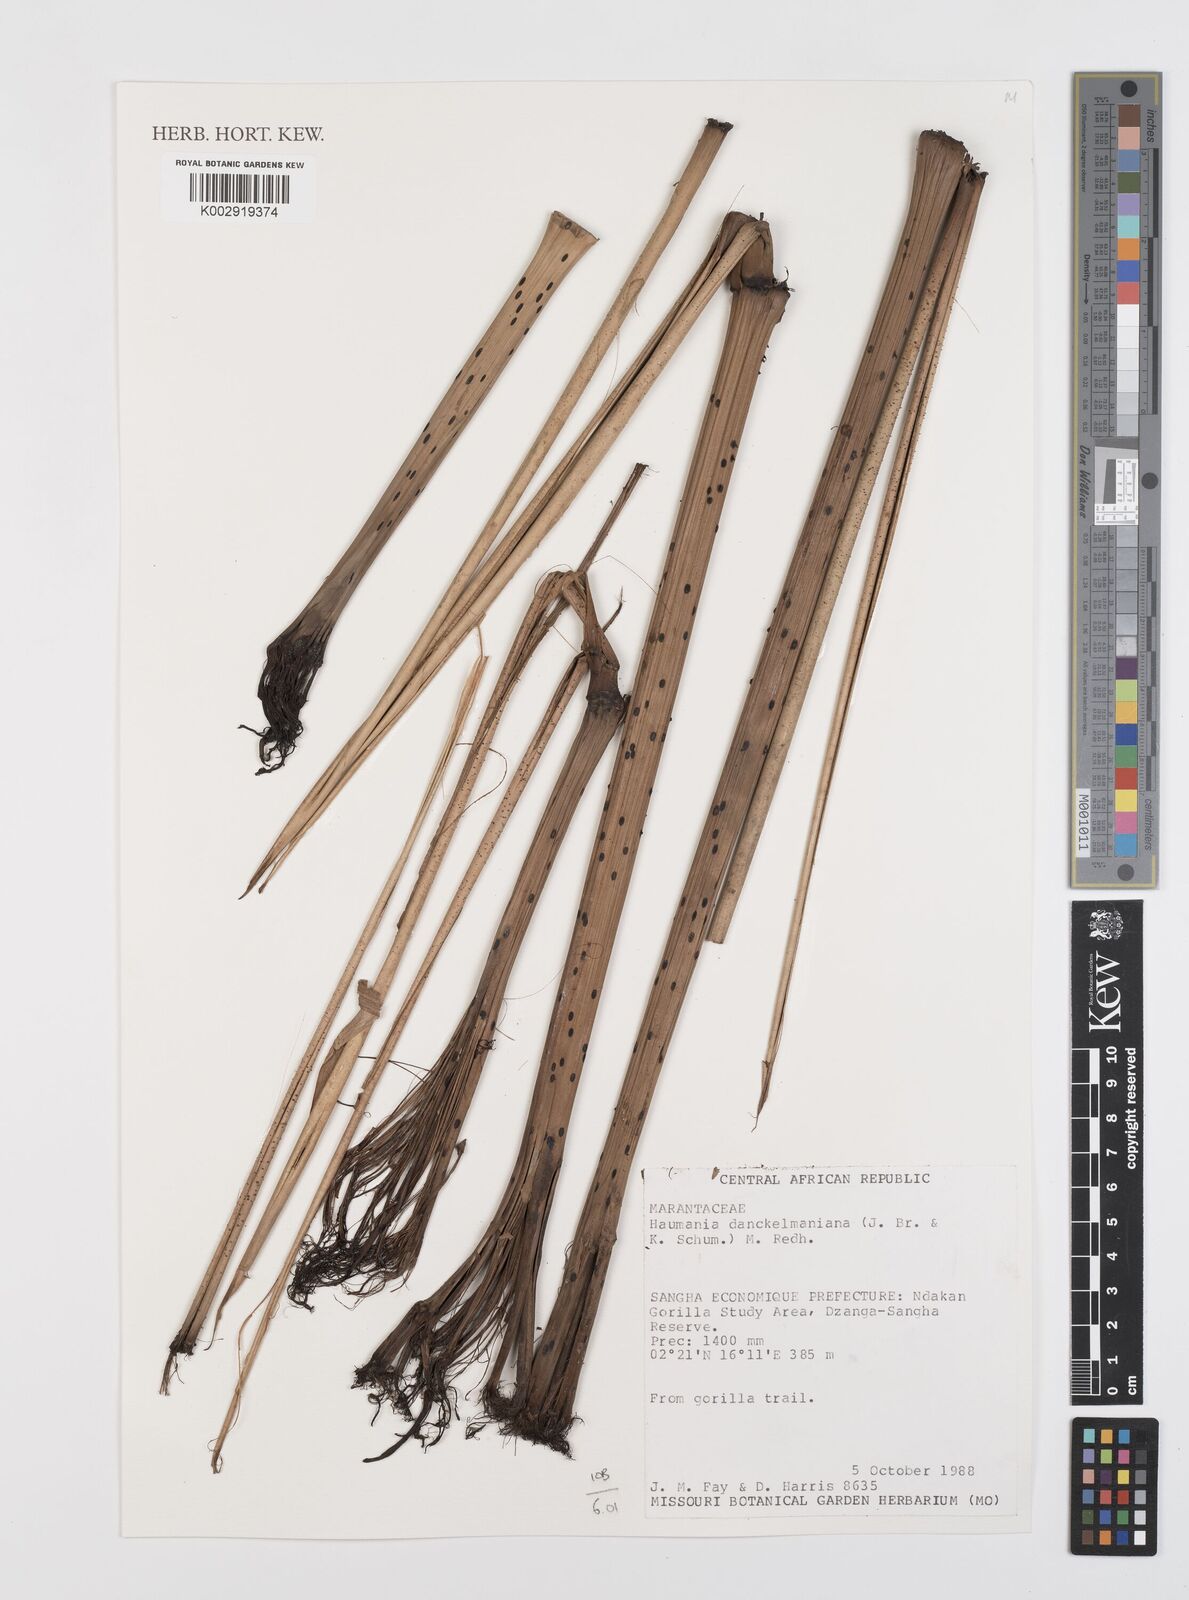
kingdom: Plantae
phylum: Tracheophyta
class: Liliopsida
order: Zingiberales
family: Marantaceae
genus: Haumania
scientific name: Haumania danckelmaniana
